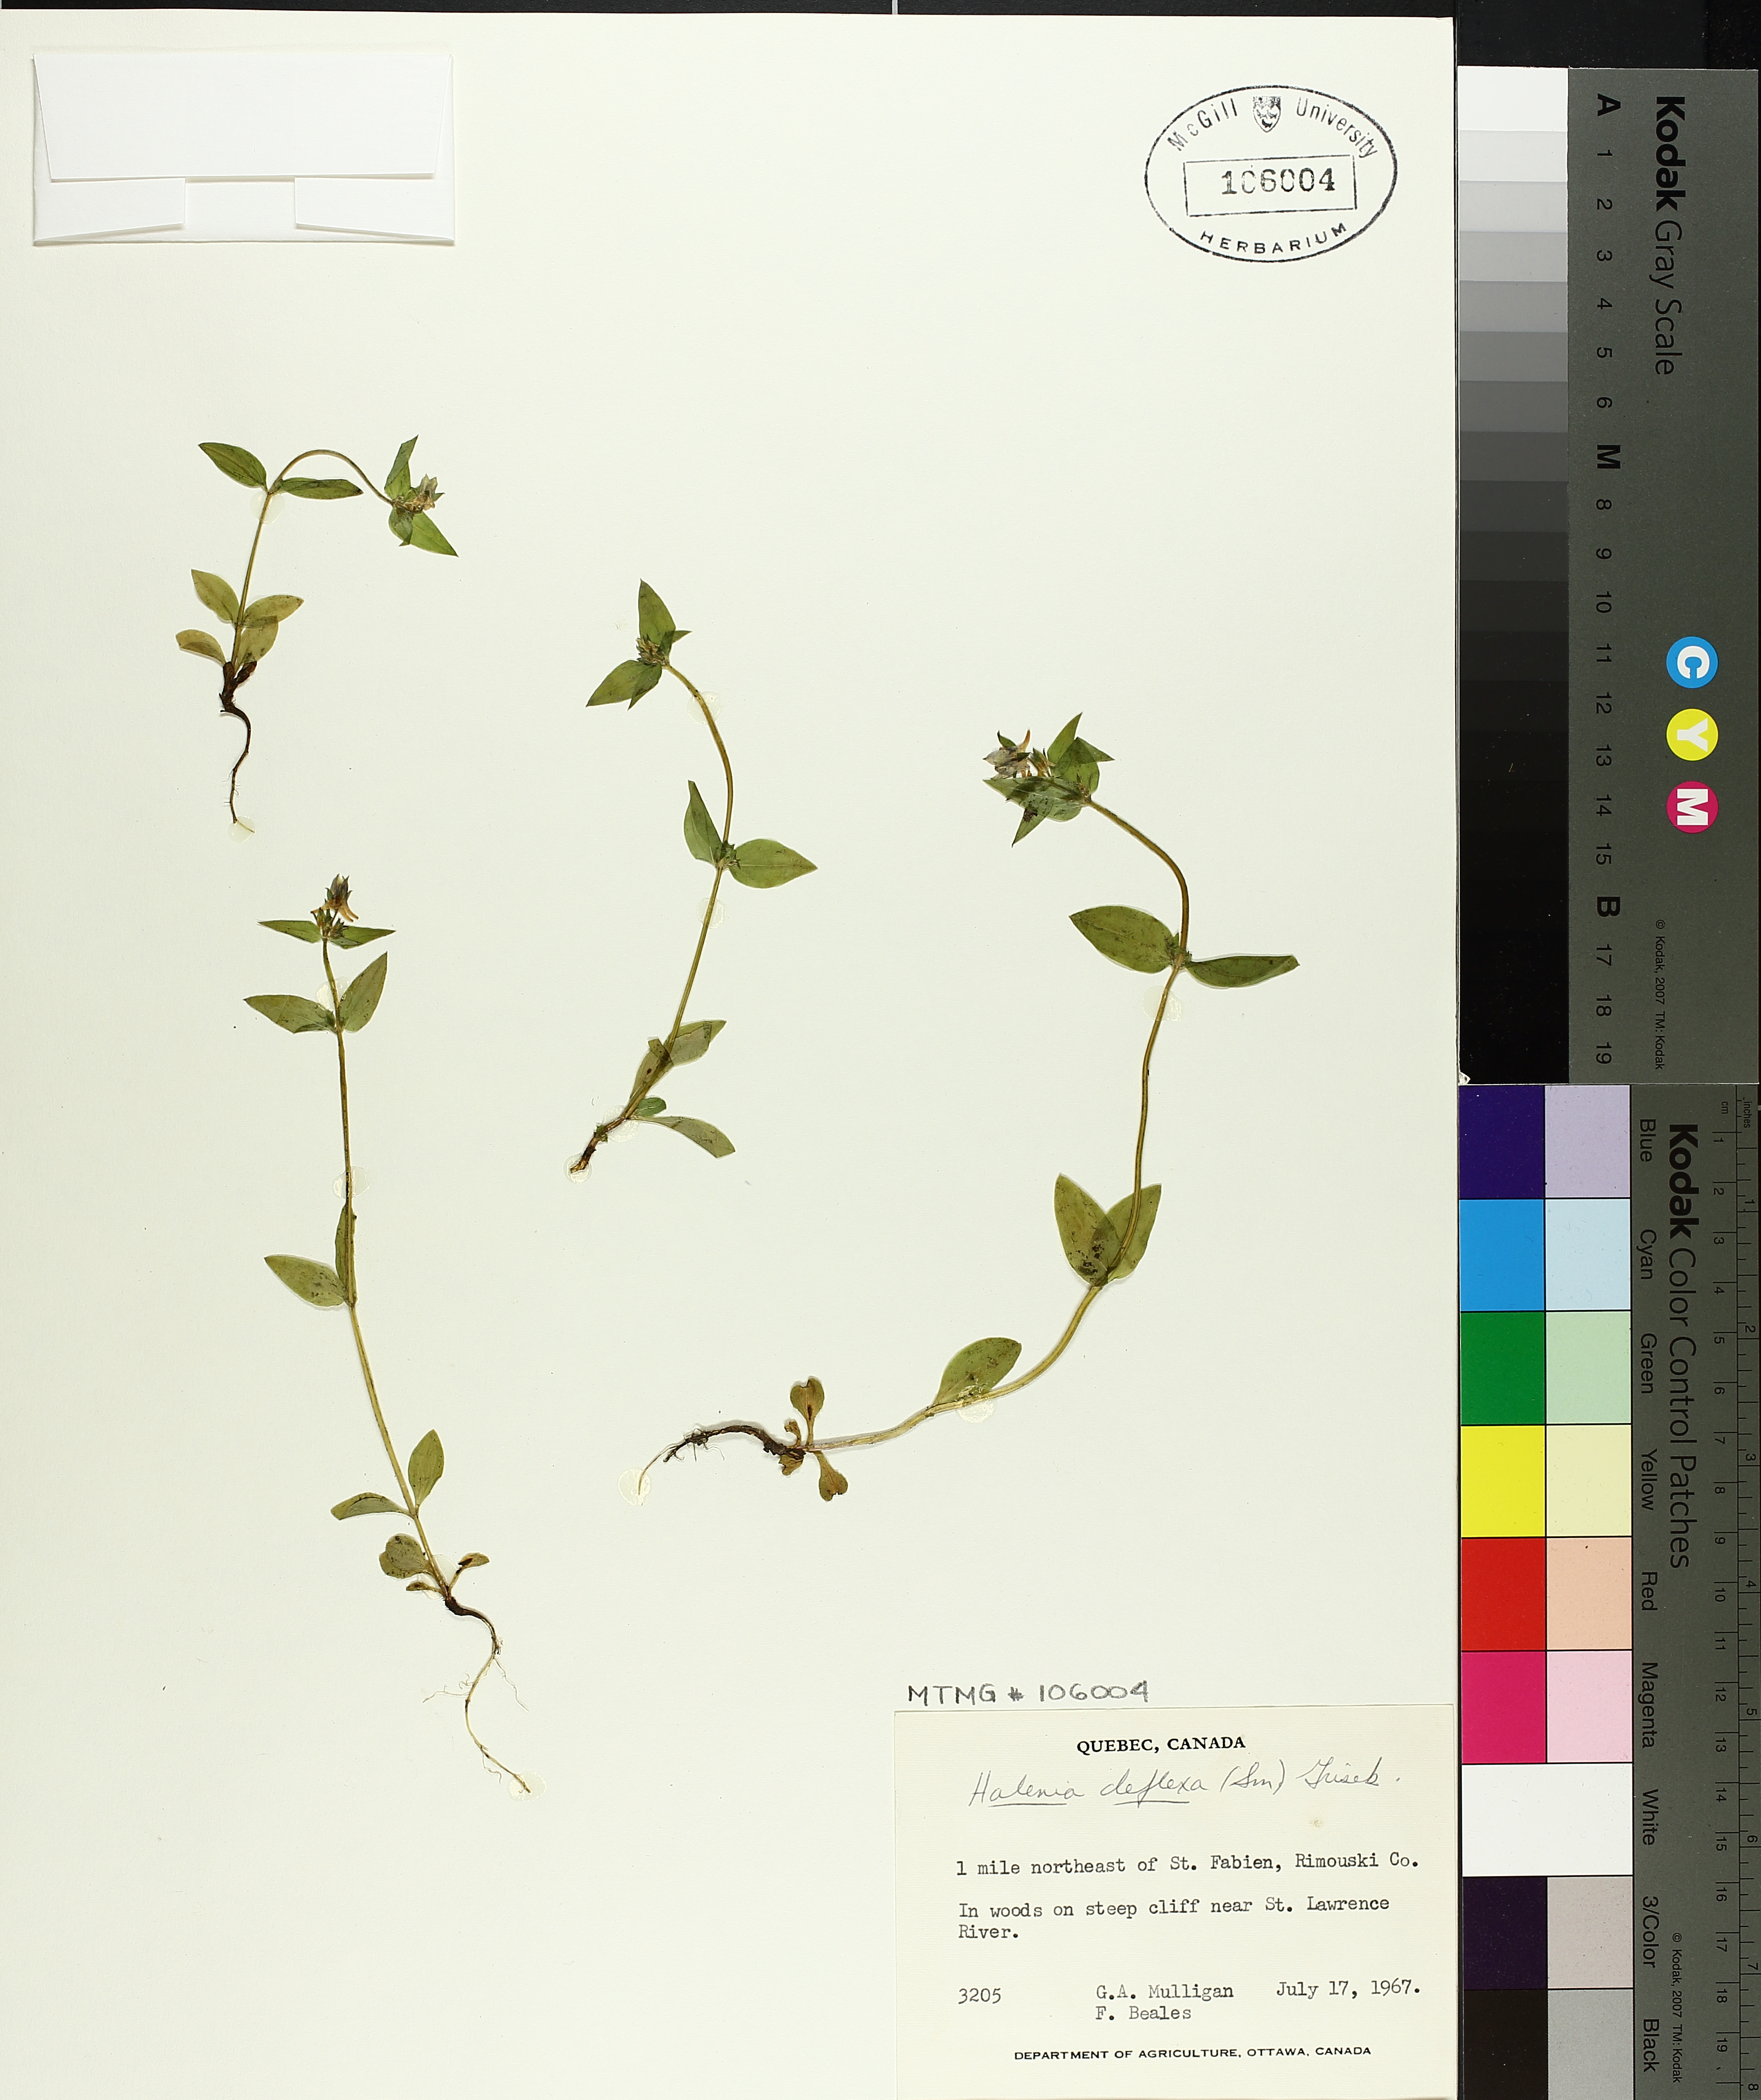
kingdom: Plantae
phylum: Tracheophyta
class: Magnoliopsida
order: Gentianales
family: Gentianaceae
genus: Halenia
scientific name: Halenia deflexa
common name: American spurred gentian
